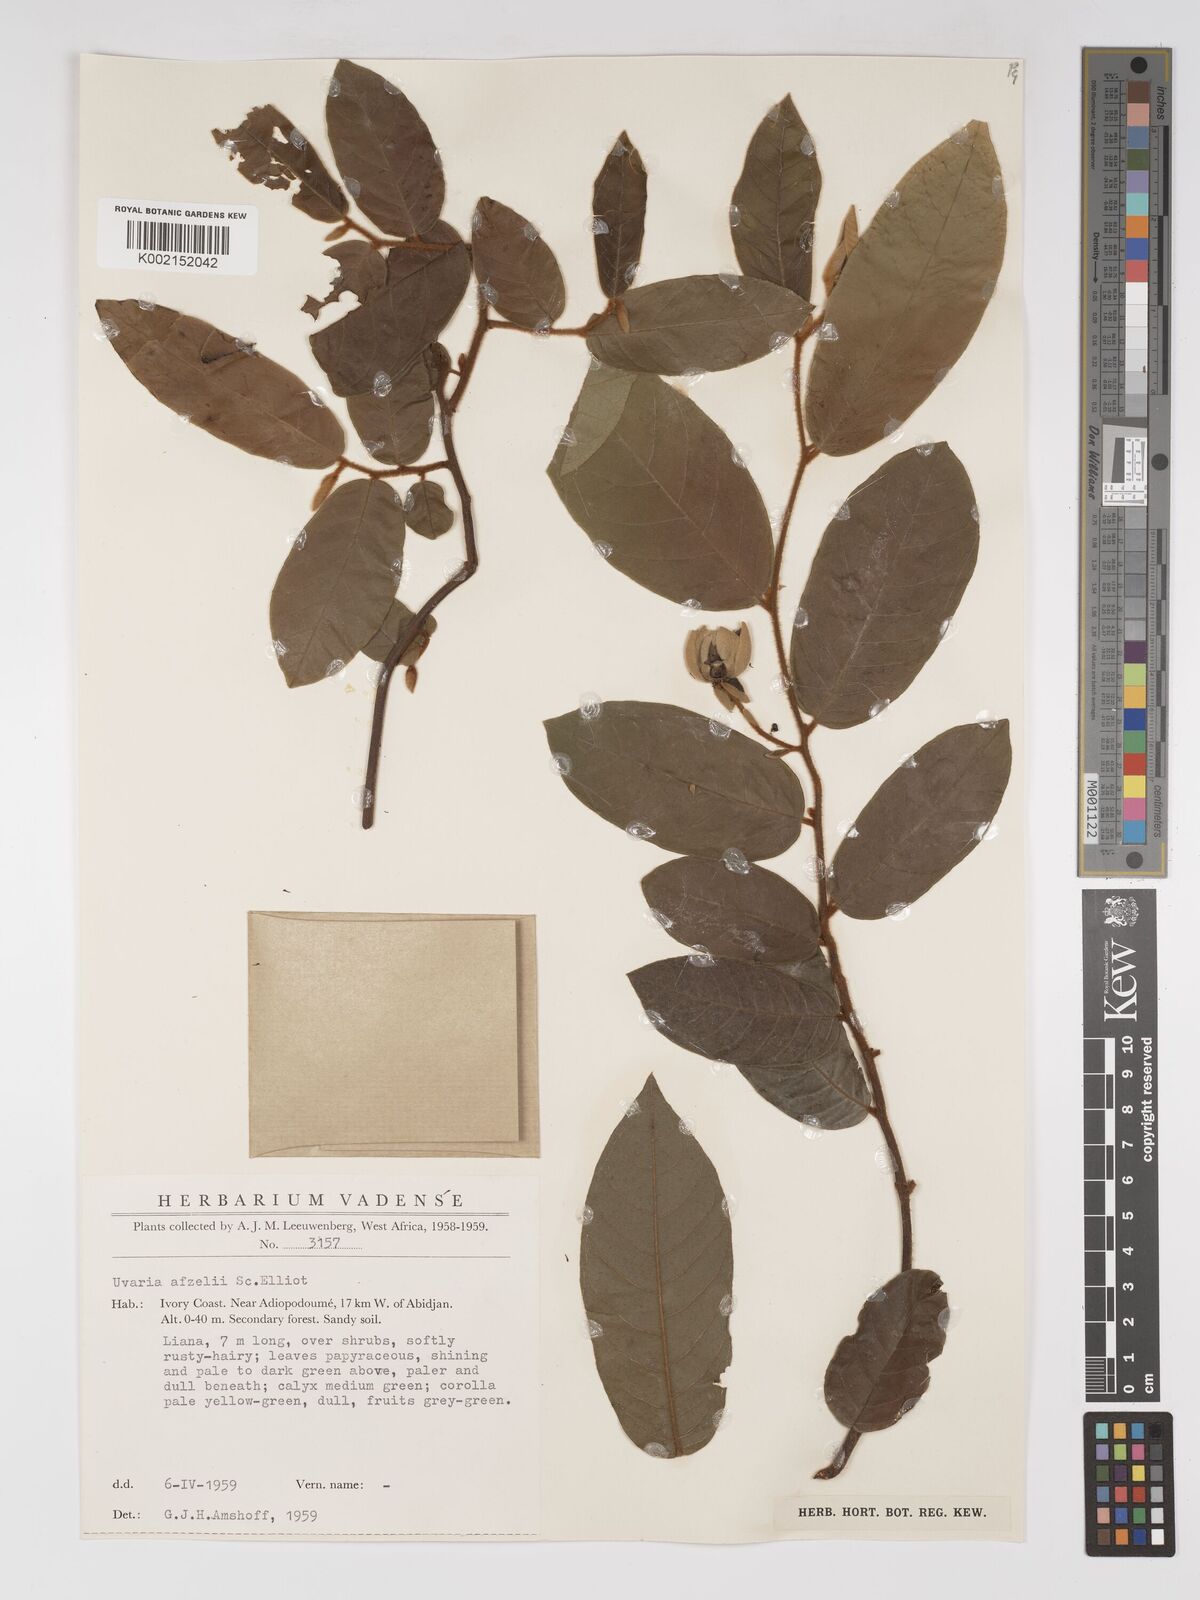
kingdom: Plantae
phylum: Tracheophyta
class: Magnoliopsida
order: Magnoliales
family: Annonaceae
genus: Uvaria
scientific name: Uvaria afzelii
